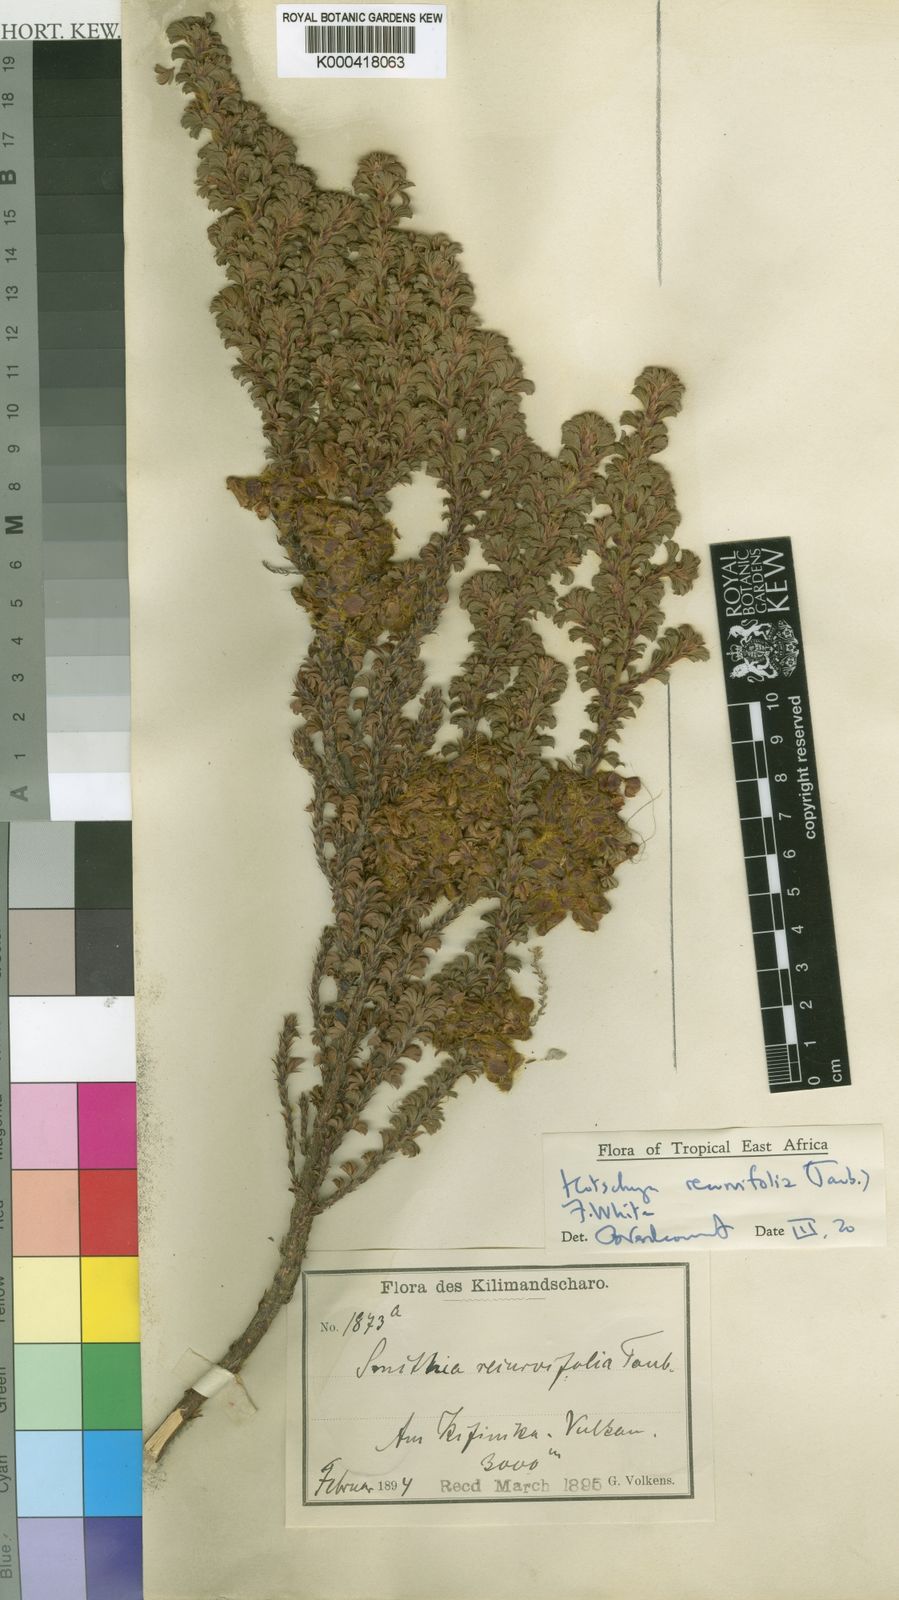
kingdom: Plantae
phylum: Tracheophyta
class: Magnoliopsida
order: Fabales
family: Fabaceae
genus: Kotschya
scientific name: Kotschya recurvifolia
